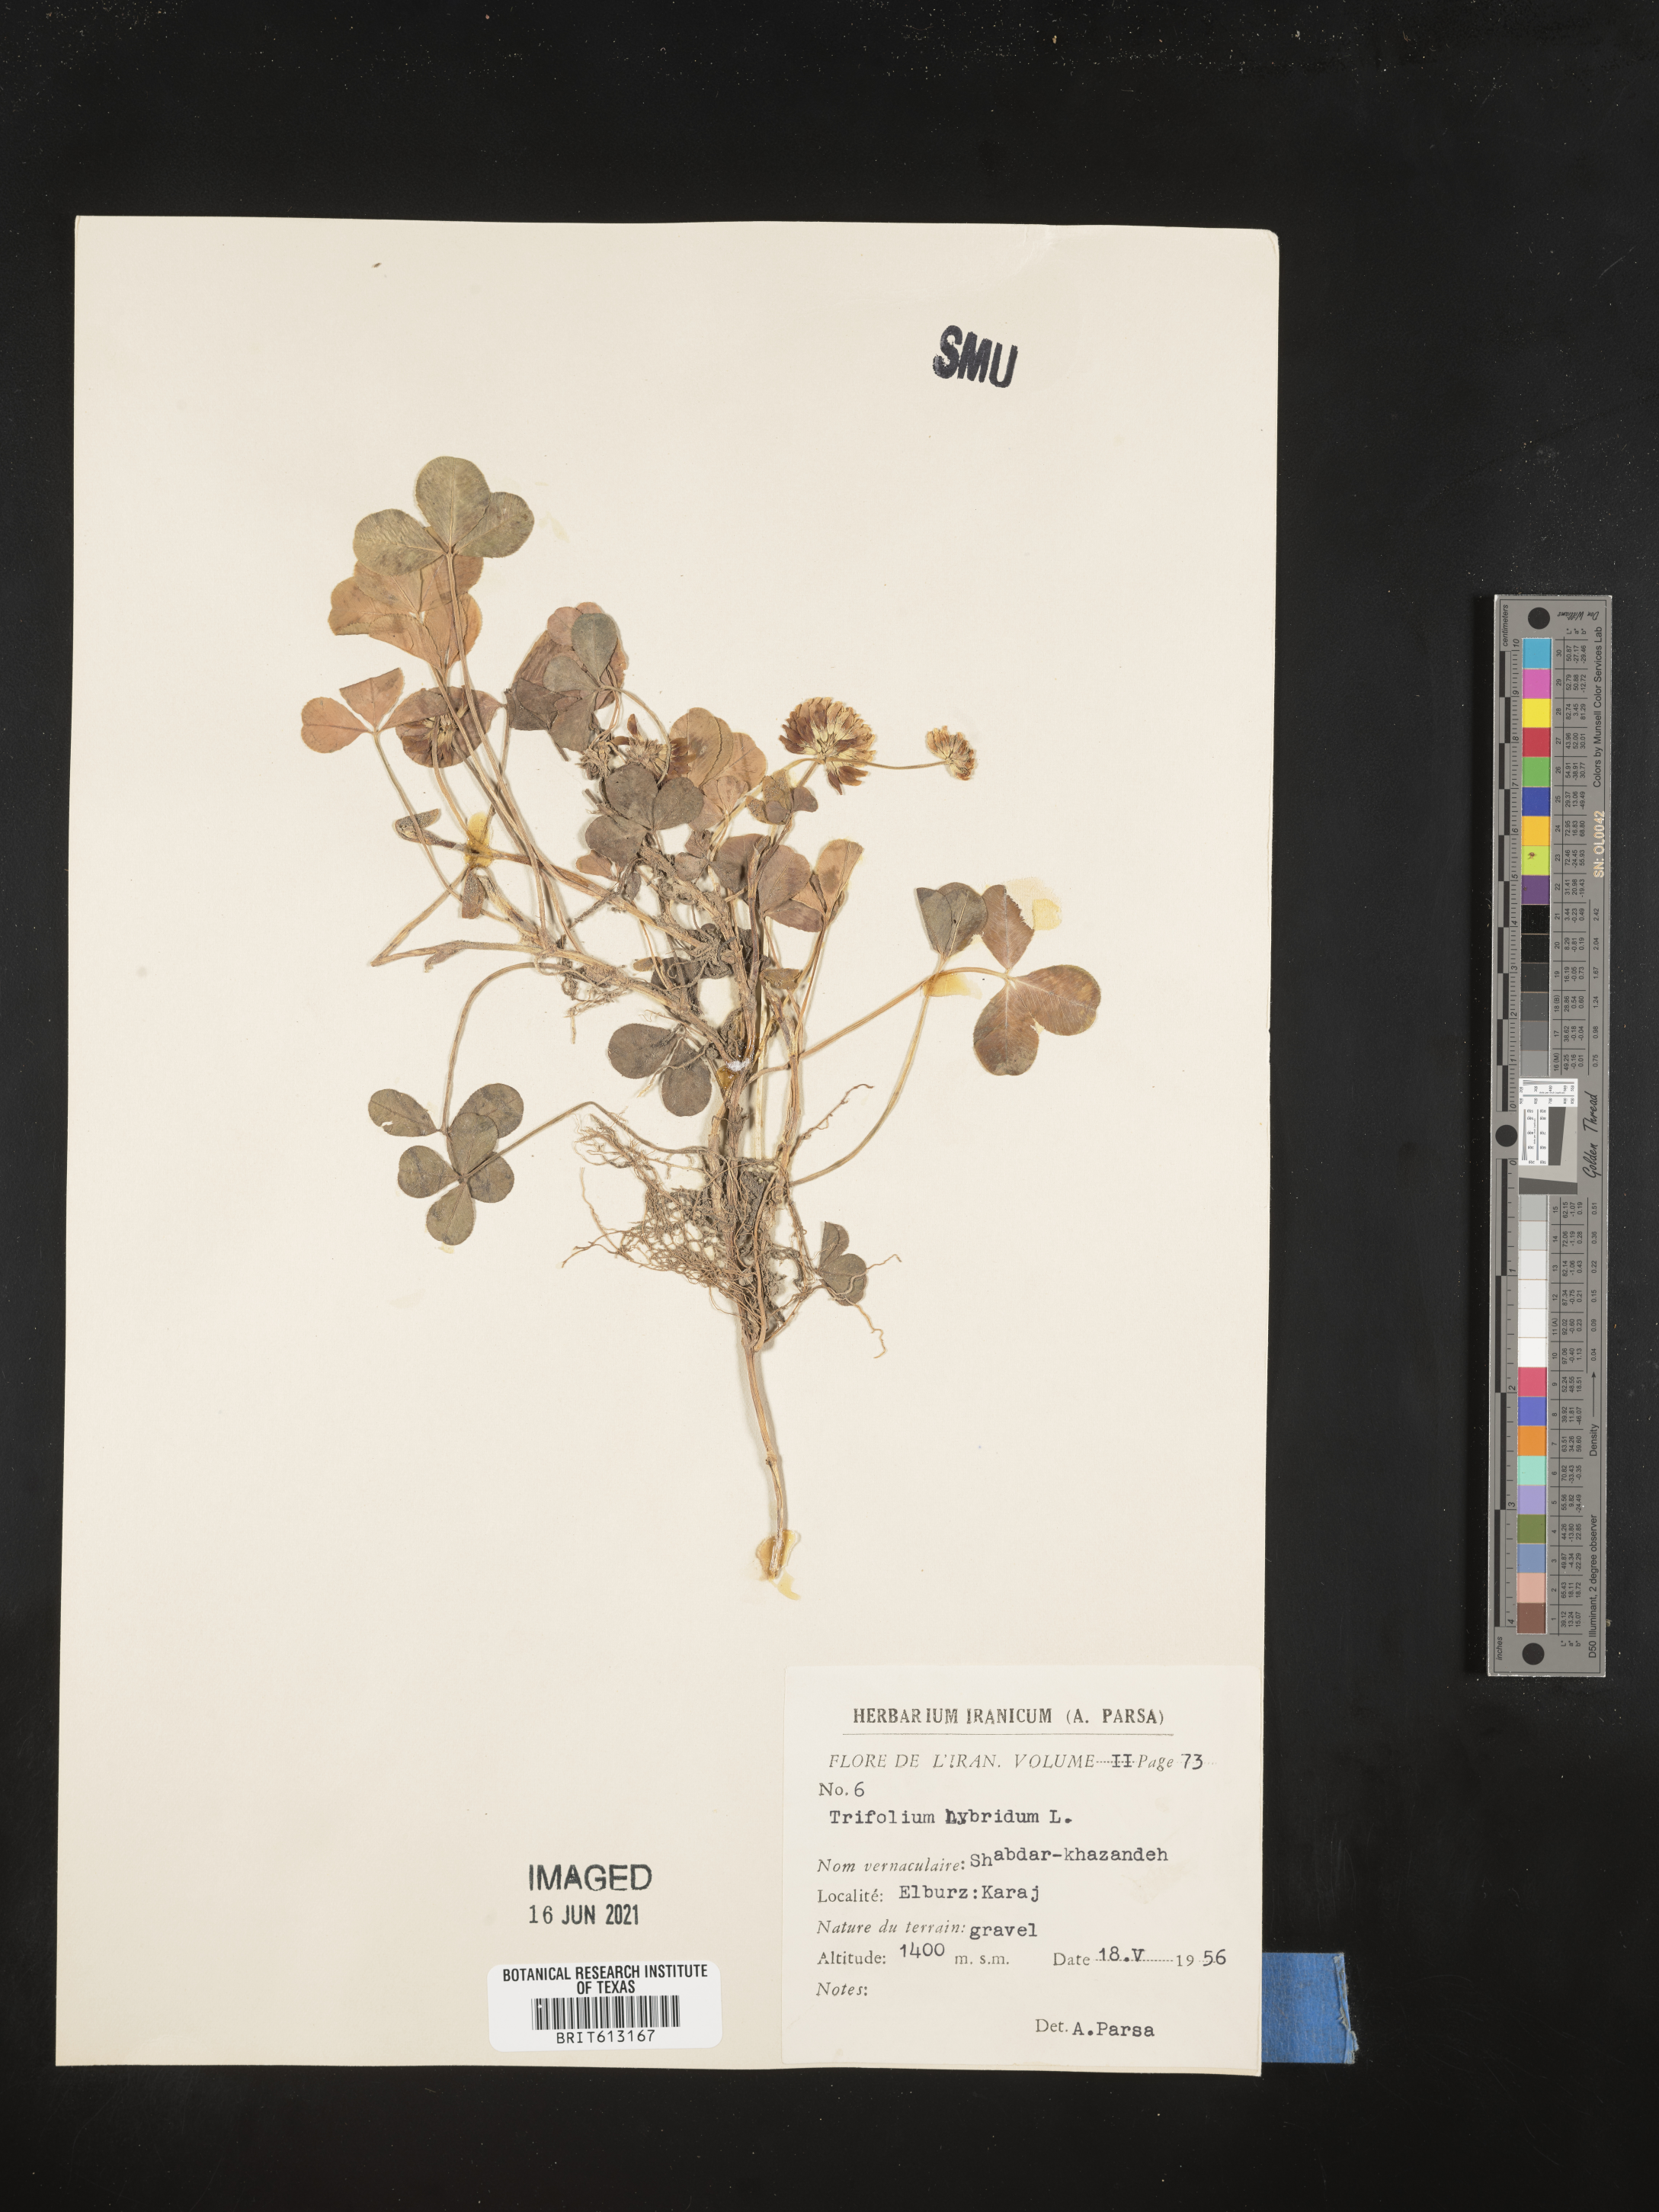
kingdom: Plantae
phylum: Tracheophyta
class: Magnoliopsida
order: Fabales
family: Fabaceae
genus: Trifolium
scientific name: Trifolium hybridum
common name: Alsike clover
